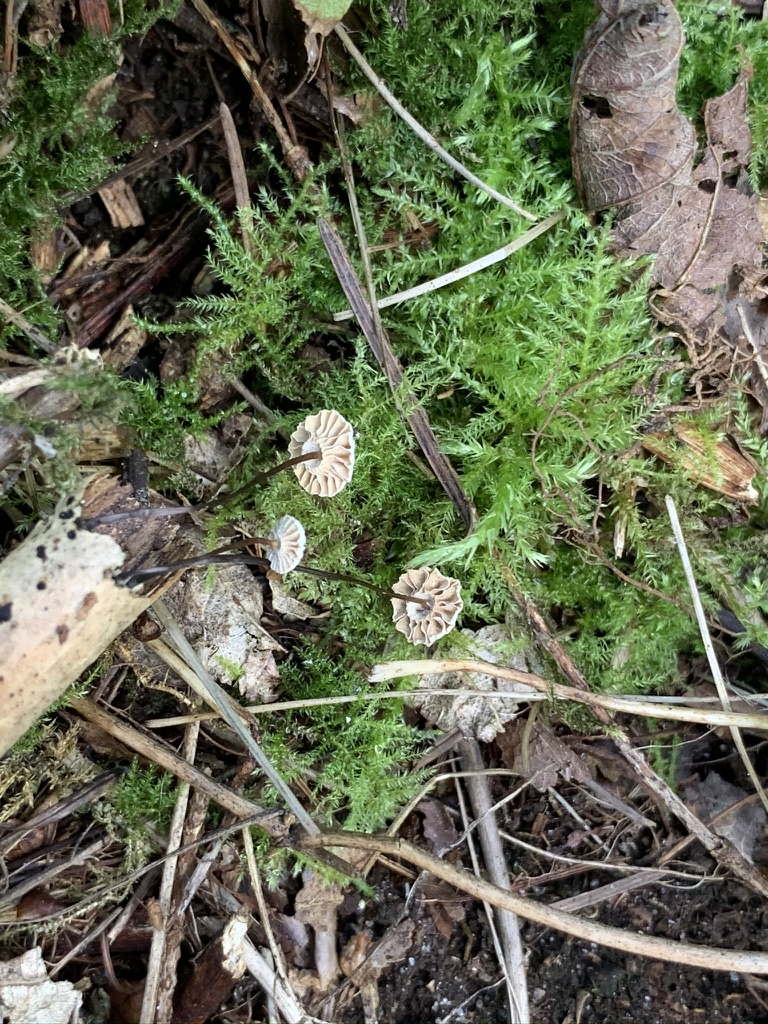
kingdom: Fungi
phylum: Basidiomycota
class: Agaricomycetes
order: Agaricales
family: Marasmiaceae
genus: Marasmius
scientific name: Marasmius rotula
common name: hjul-bruskhat
